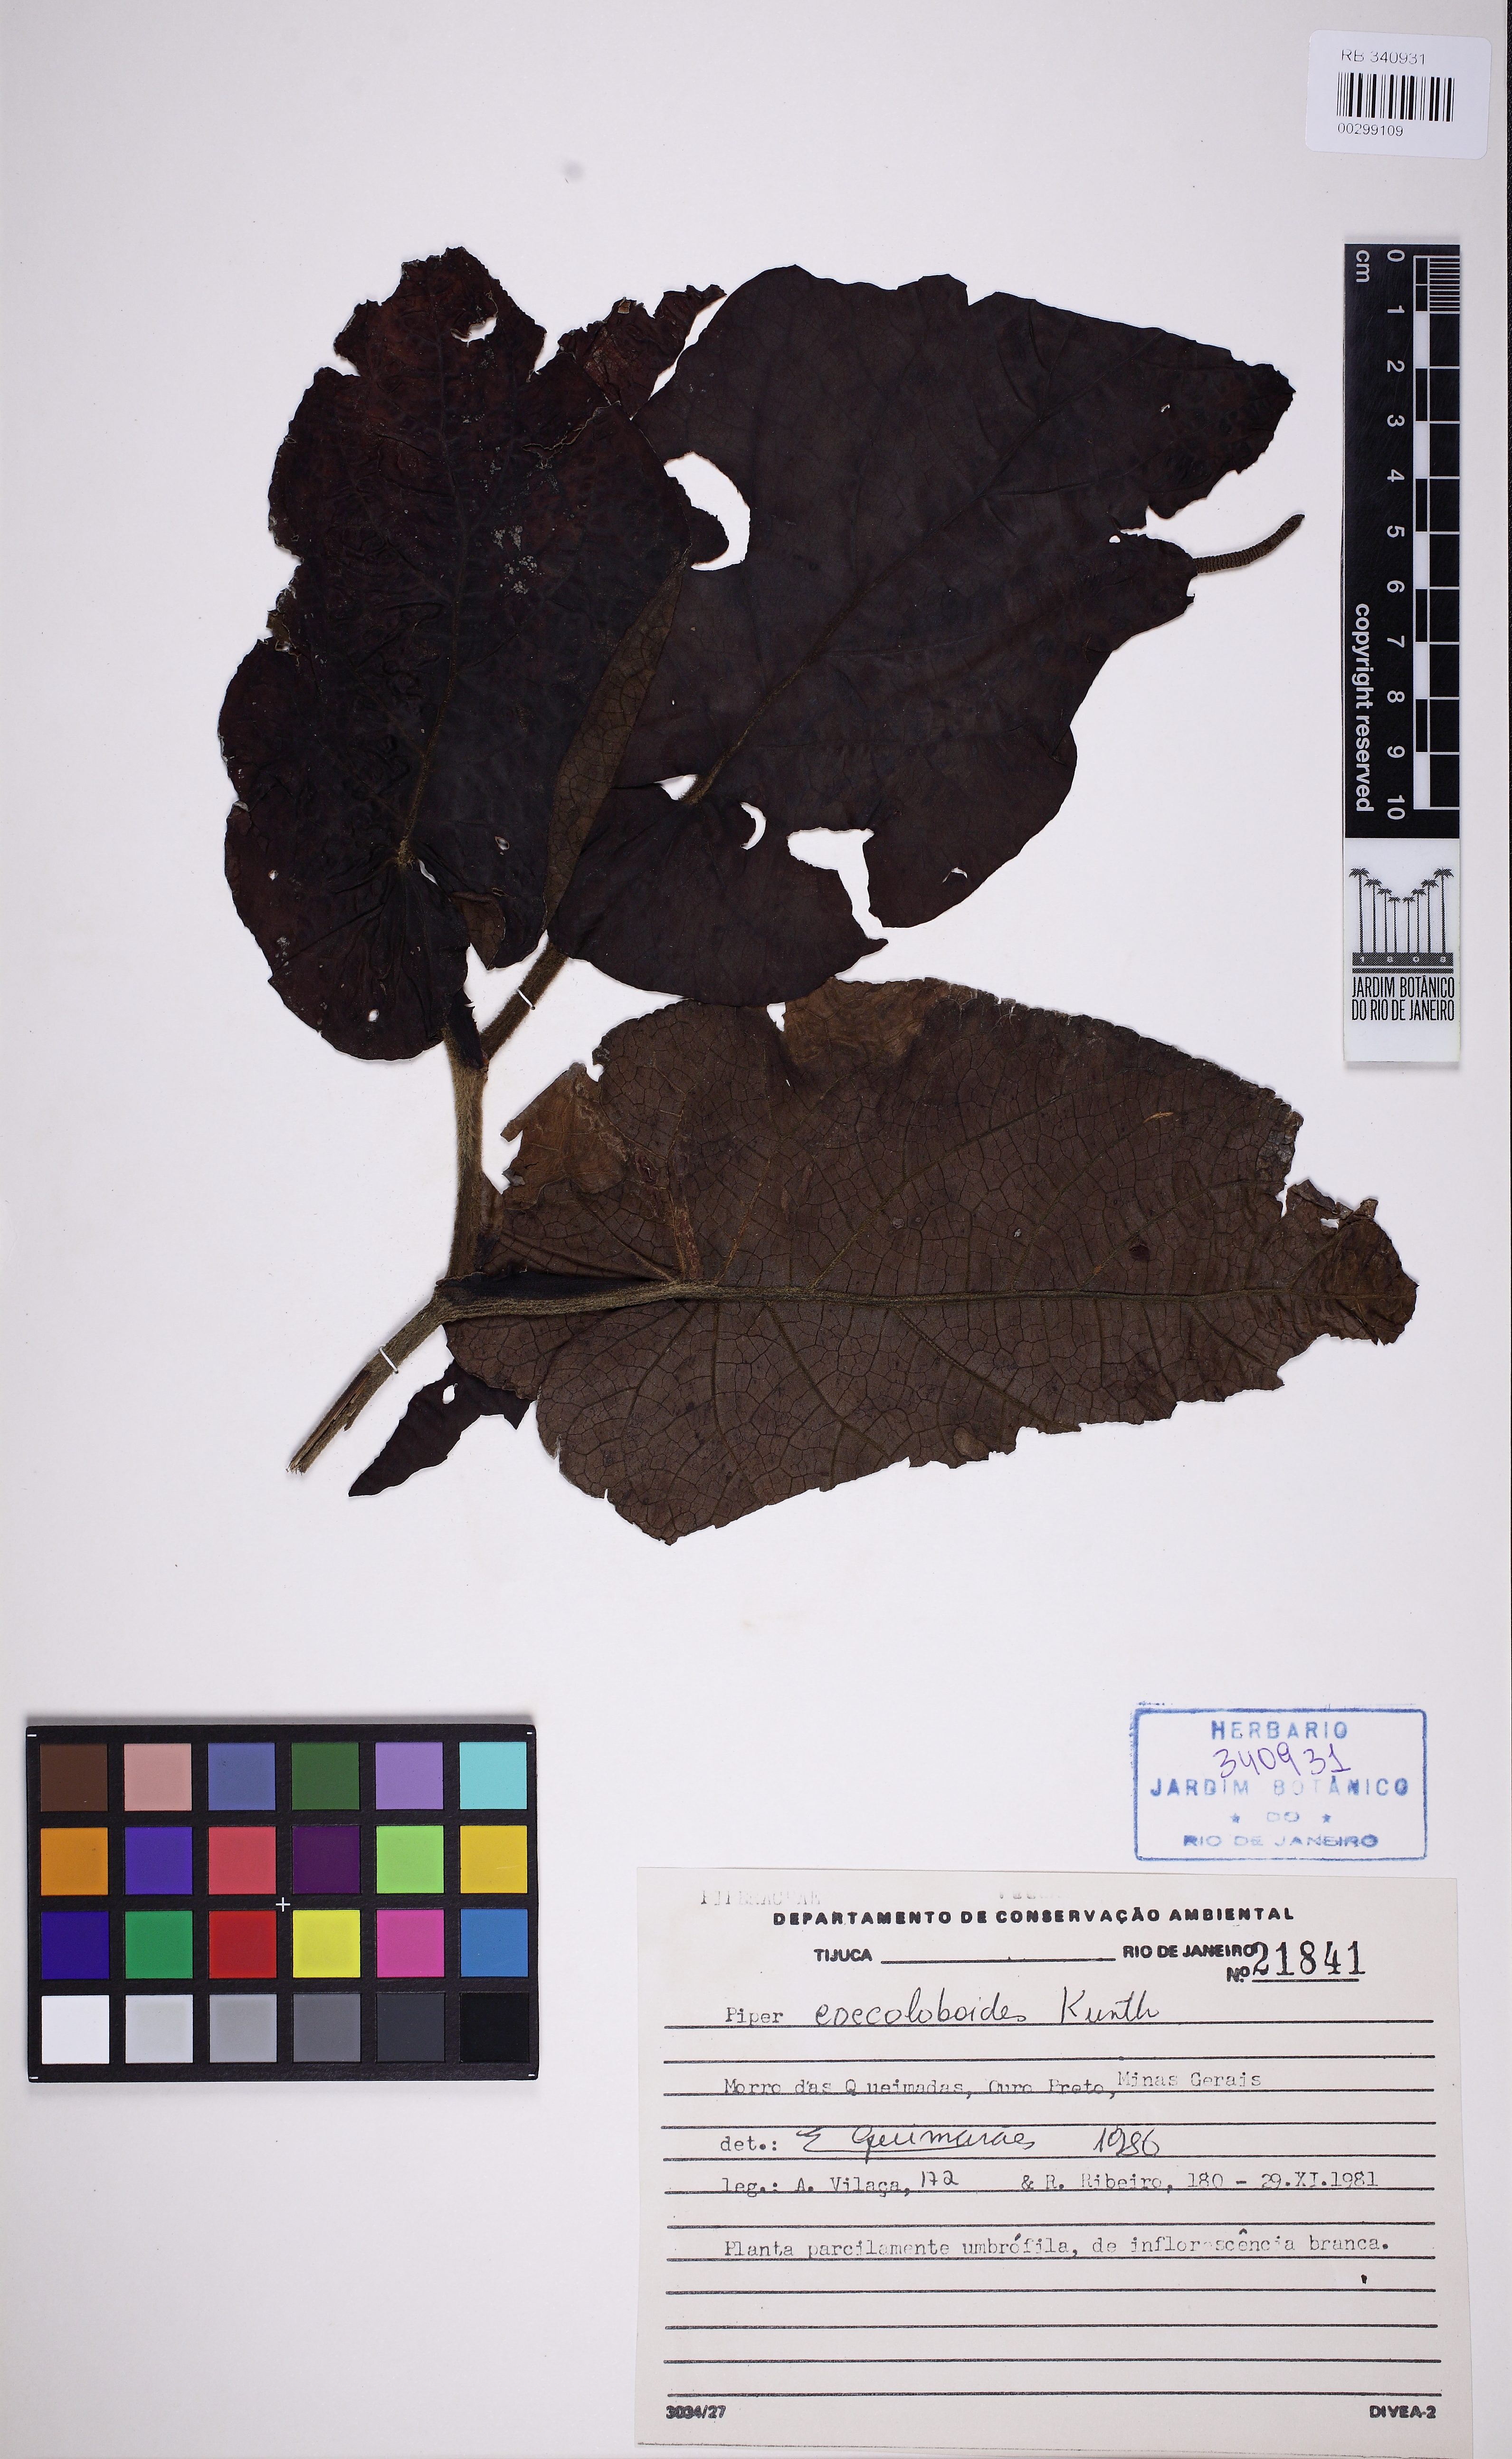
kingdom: Plantae
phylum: Tracheophyta
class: Magnoliopsida
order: Piperales
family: Piperaceae
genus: Piper
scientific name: Piper coccoloboides
